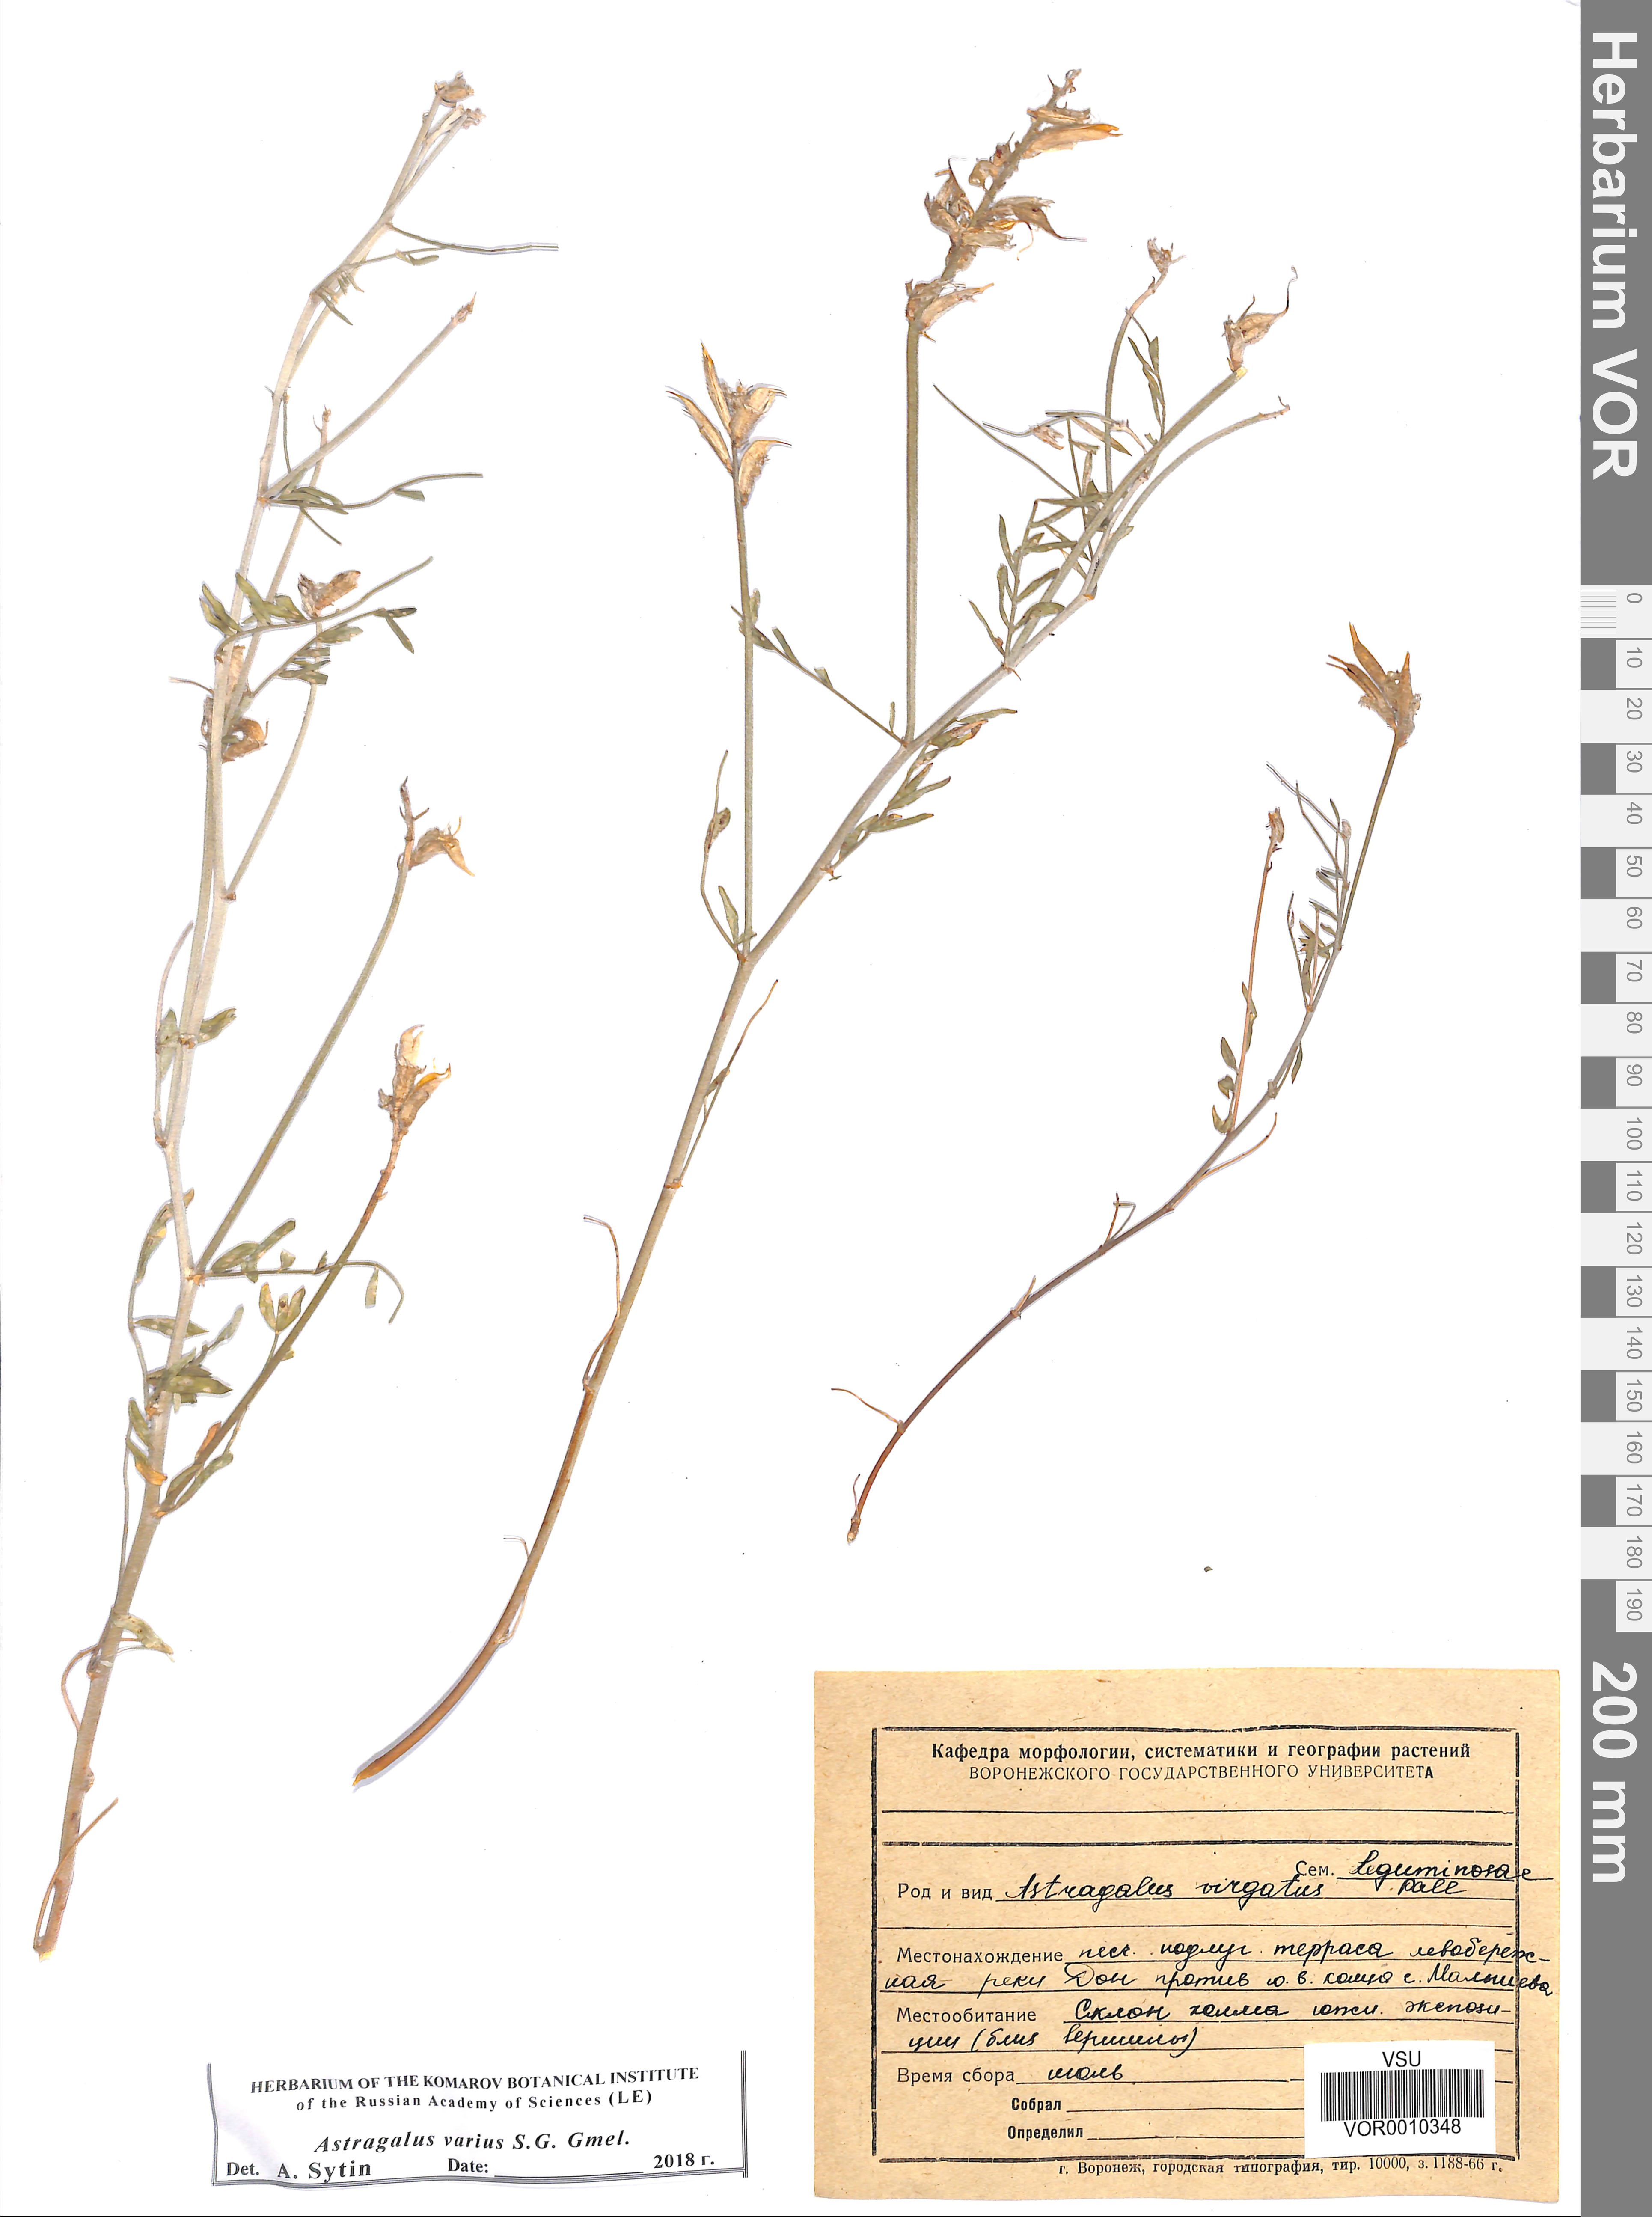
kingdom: Plantae
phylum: Tracheophyta
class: Magnoliopsida
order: Fabales
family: Fabaceae
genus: Astragalus
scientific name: Astragalus varius
